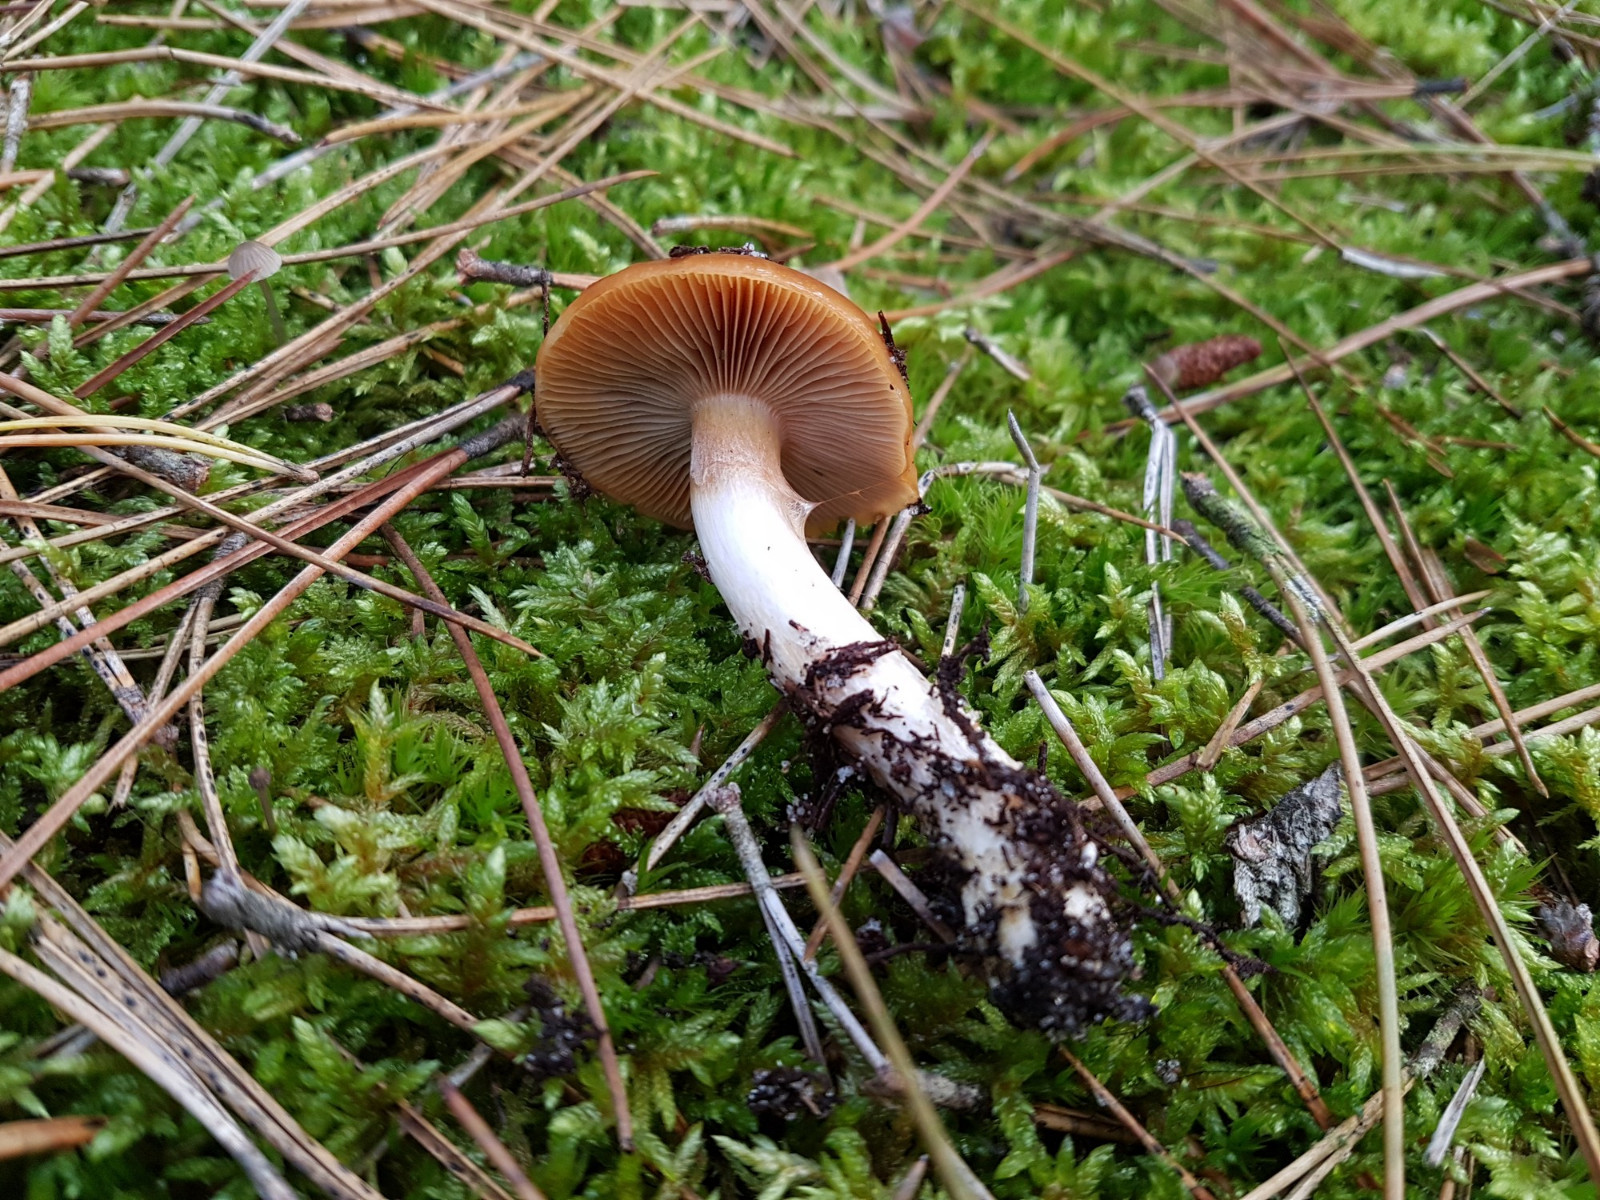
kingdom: Fungi
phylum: Basidiomycota
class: Agaricomycetes
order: Agaricales
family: Cortinariaceae
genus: Cortinarius
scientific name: Cortinarius mucosus
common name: kastaniebrun slørhat
